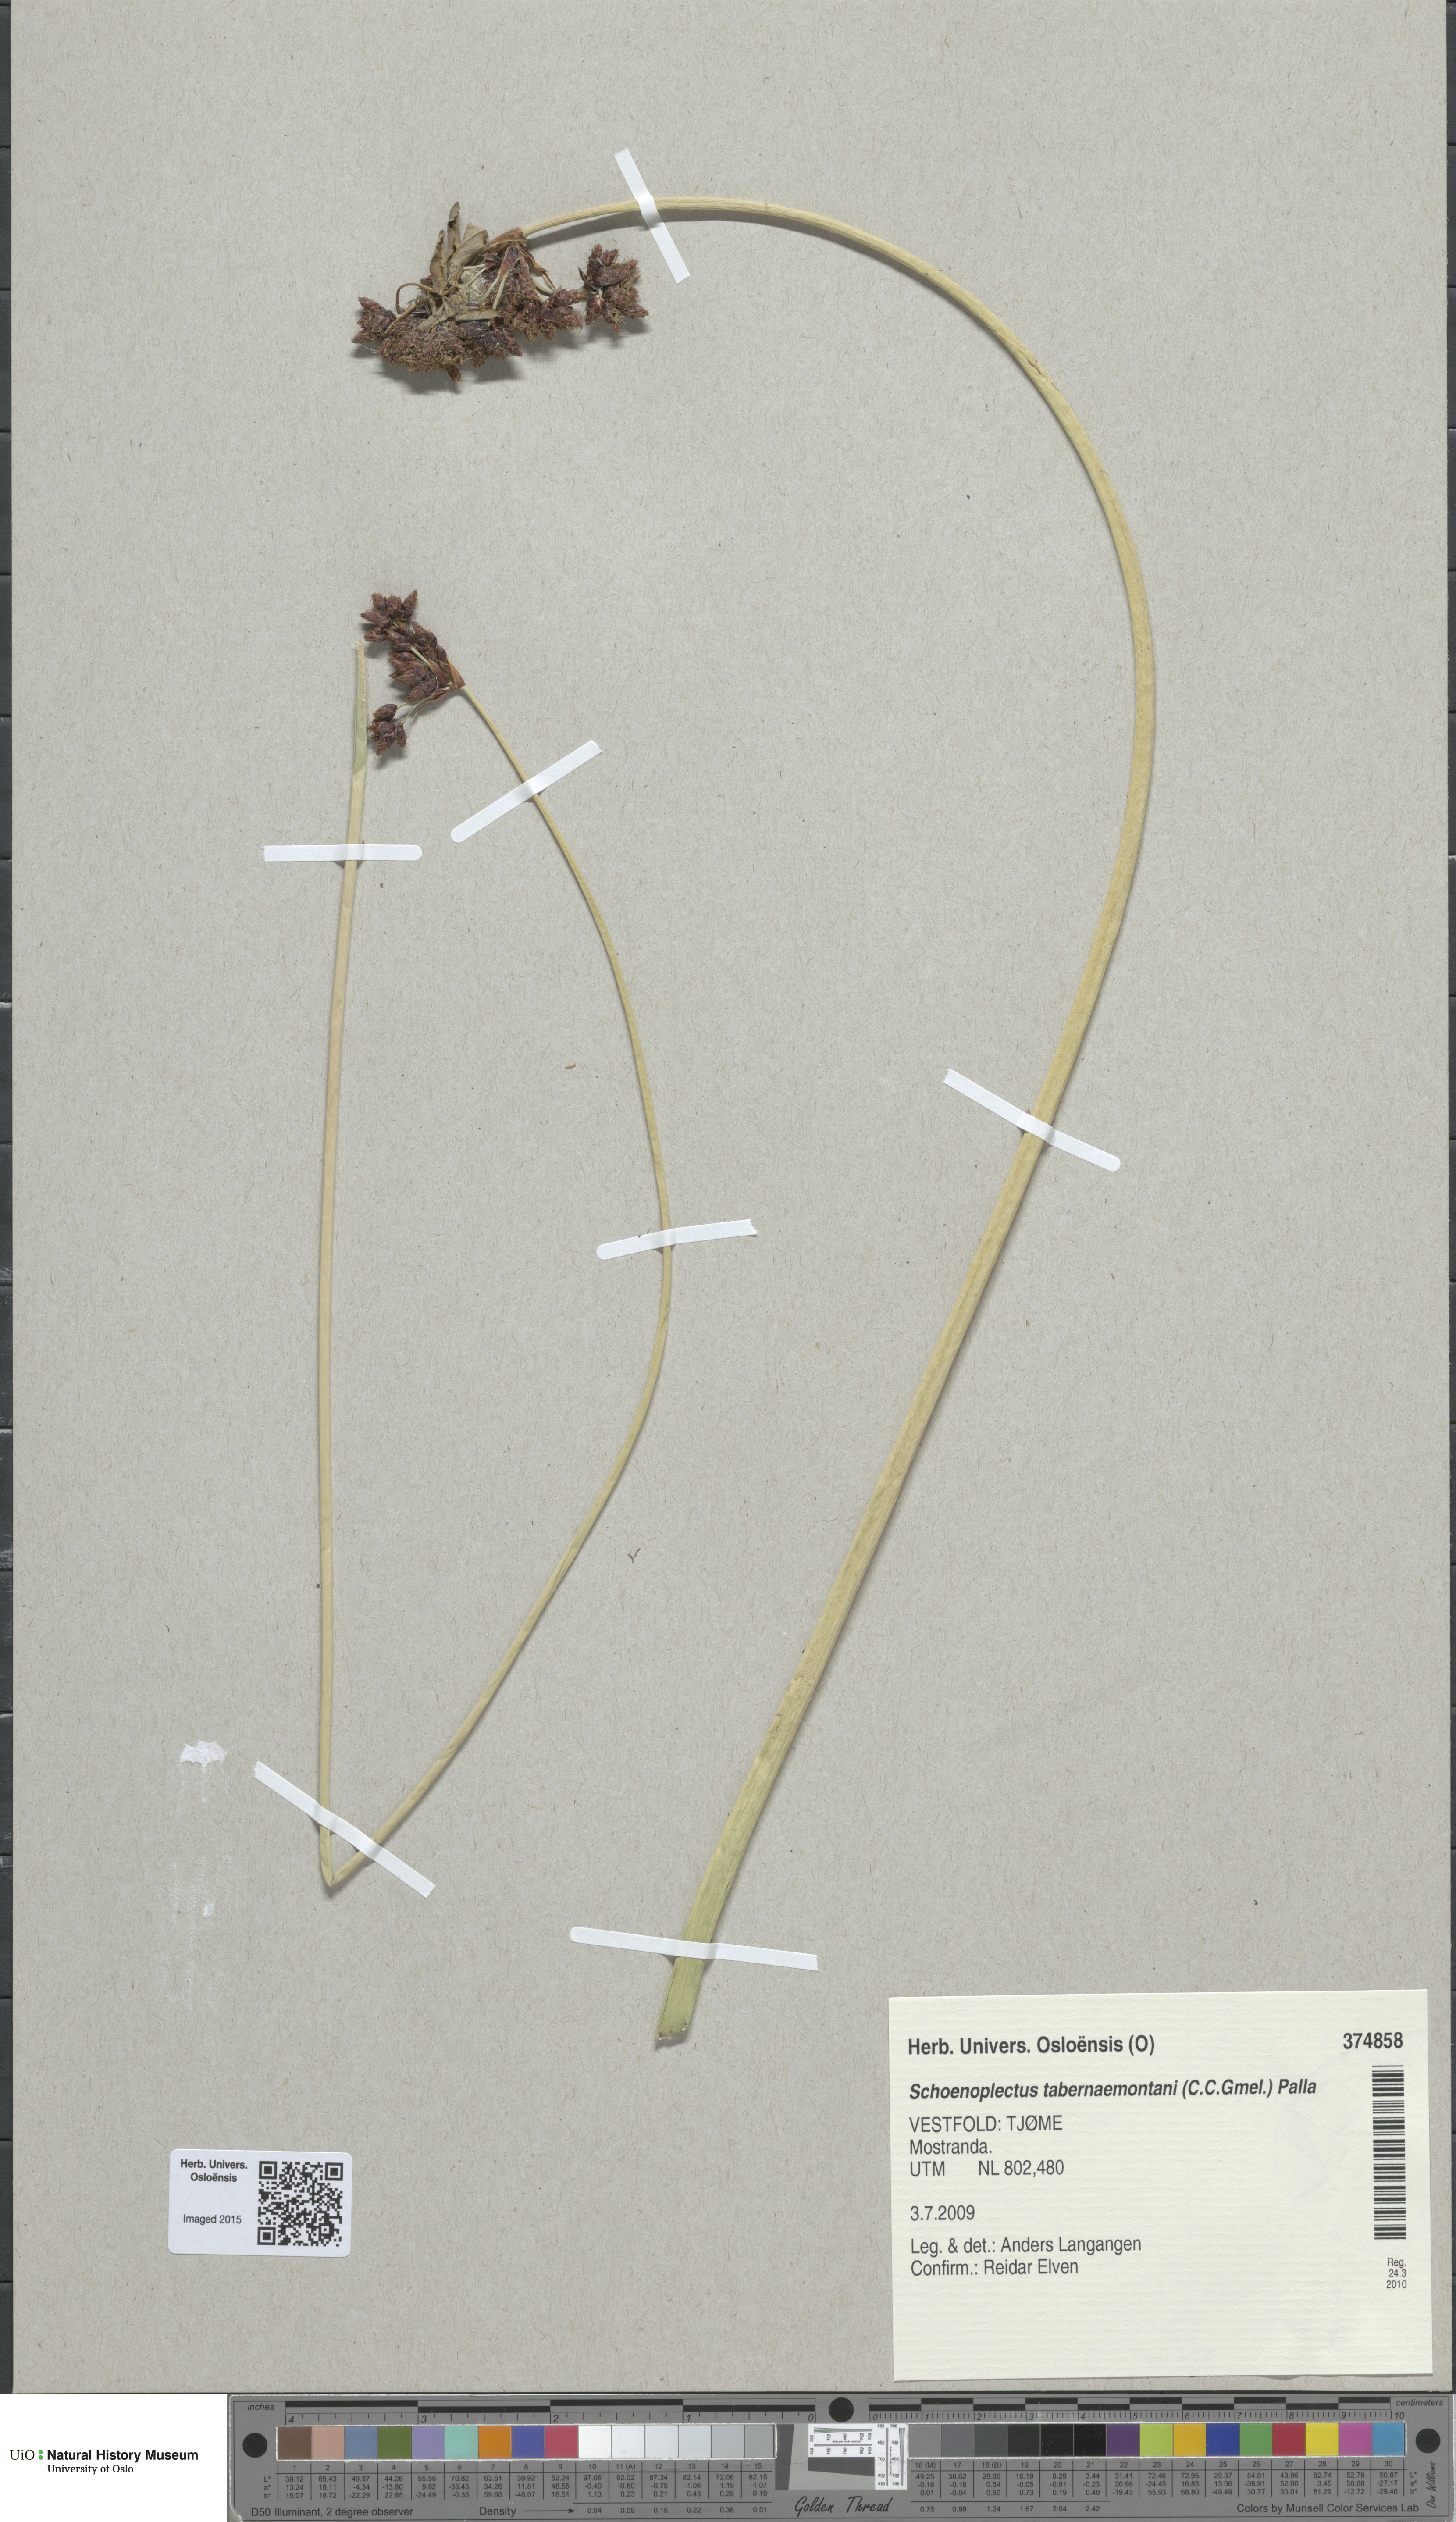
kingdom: Plantae
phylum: Tracheophyta
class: Liliopsida
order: Poales
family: Cyperaceae
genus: Schoenoplectus
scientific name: Schoenoplectus tabernaemontani
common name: Grey club-rush
